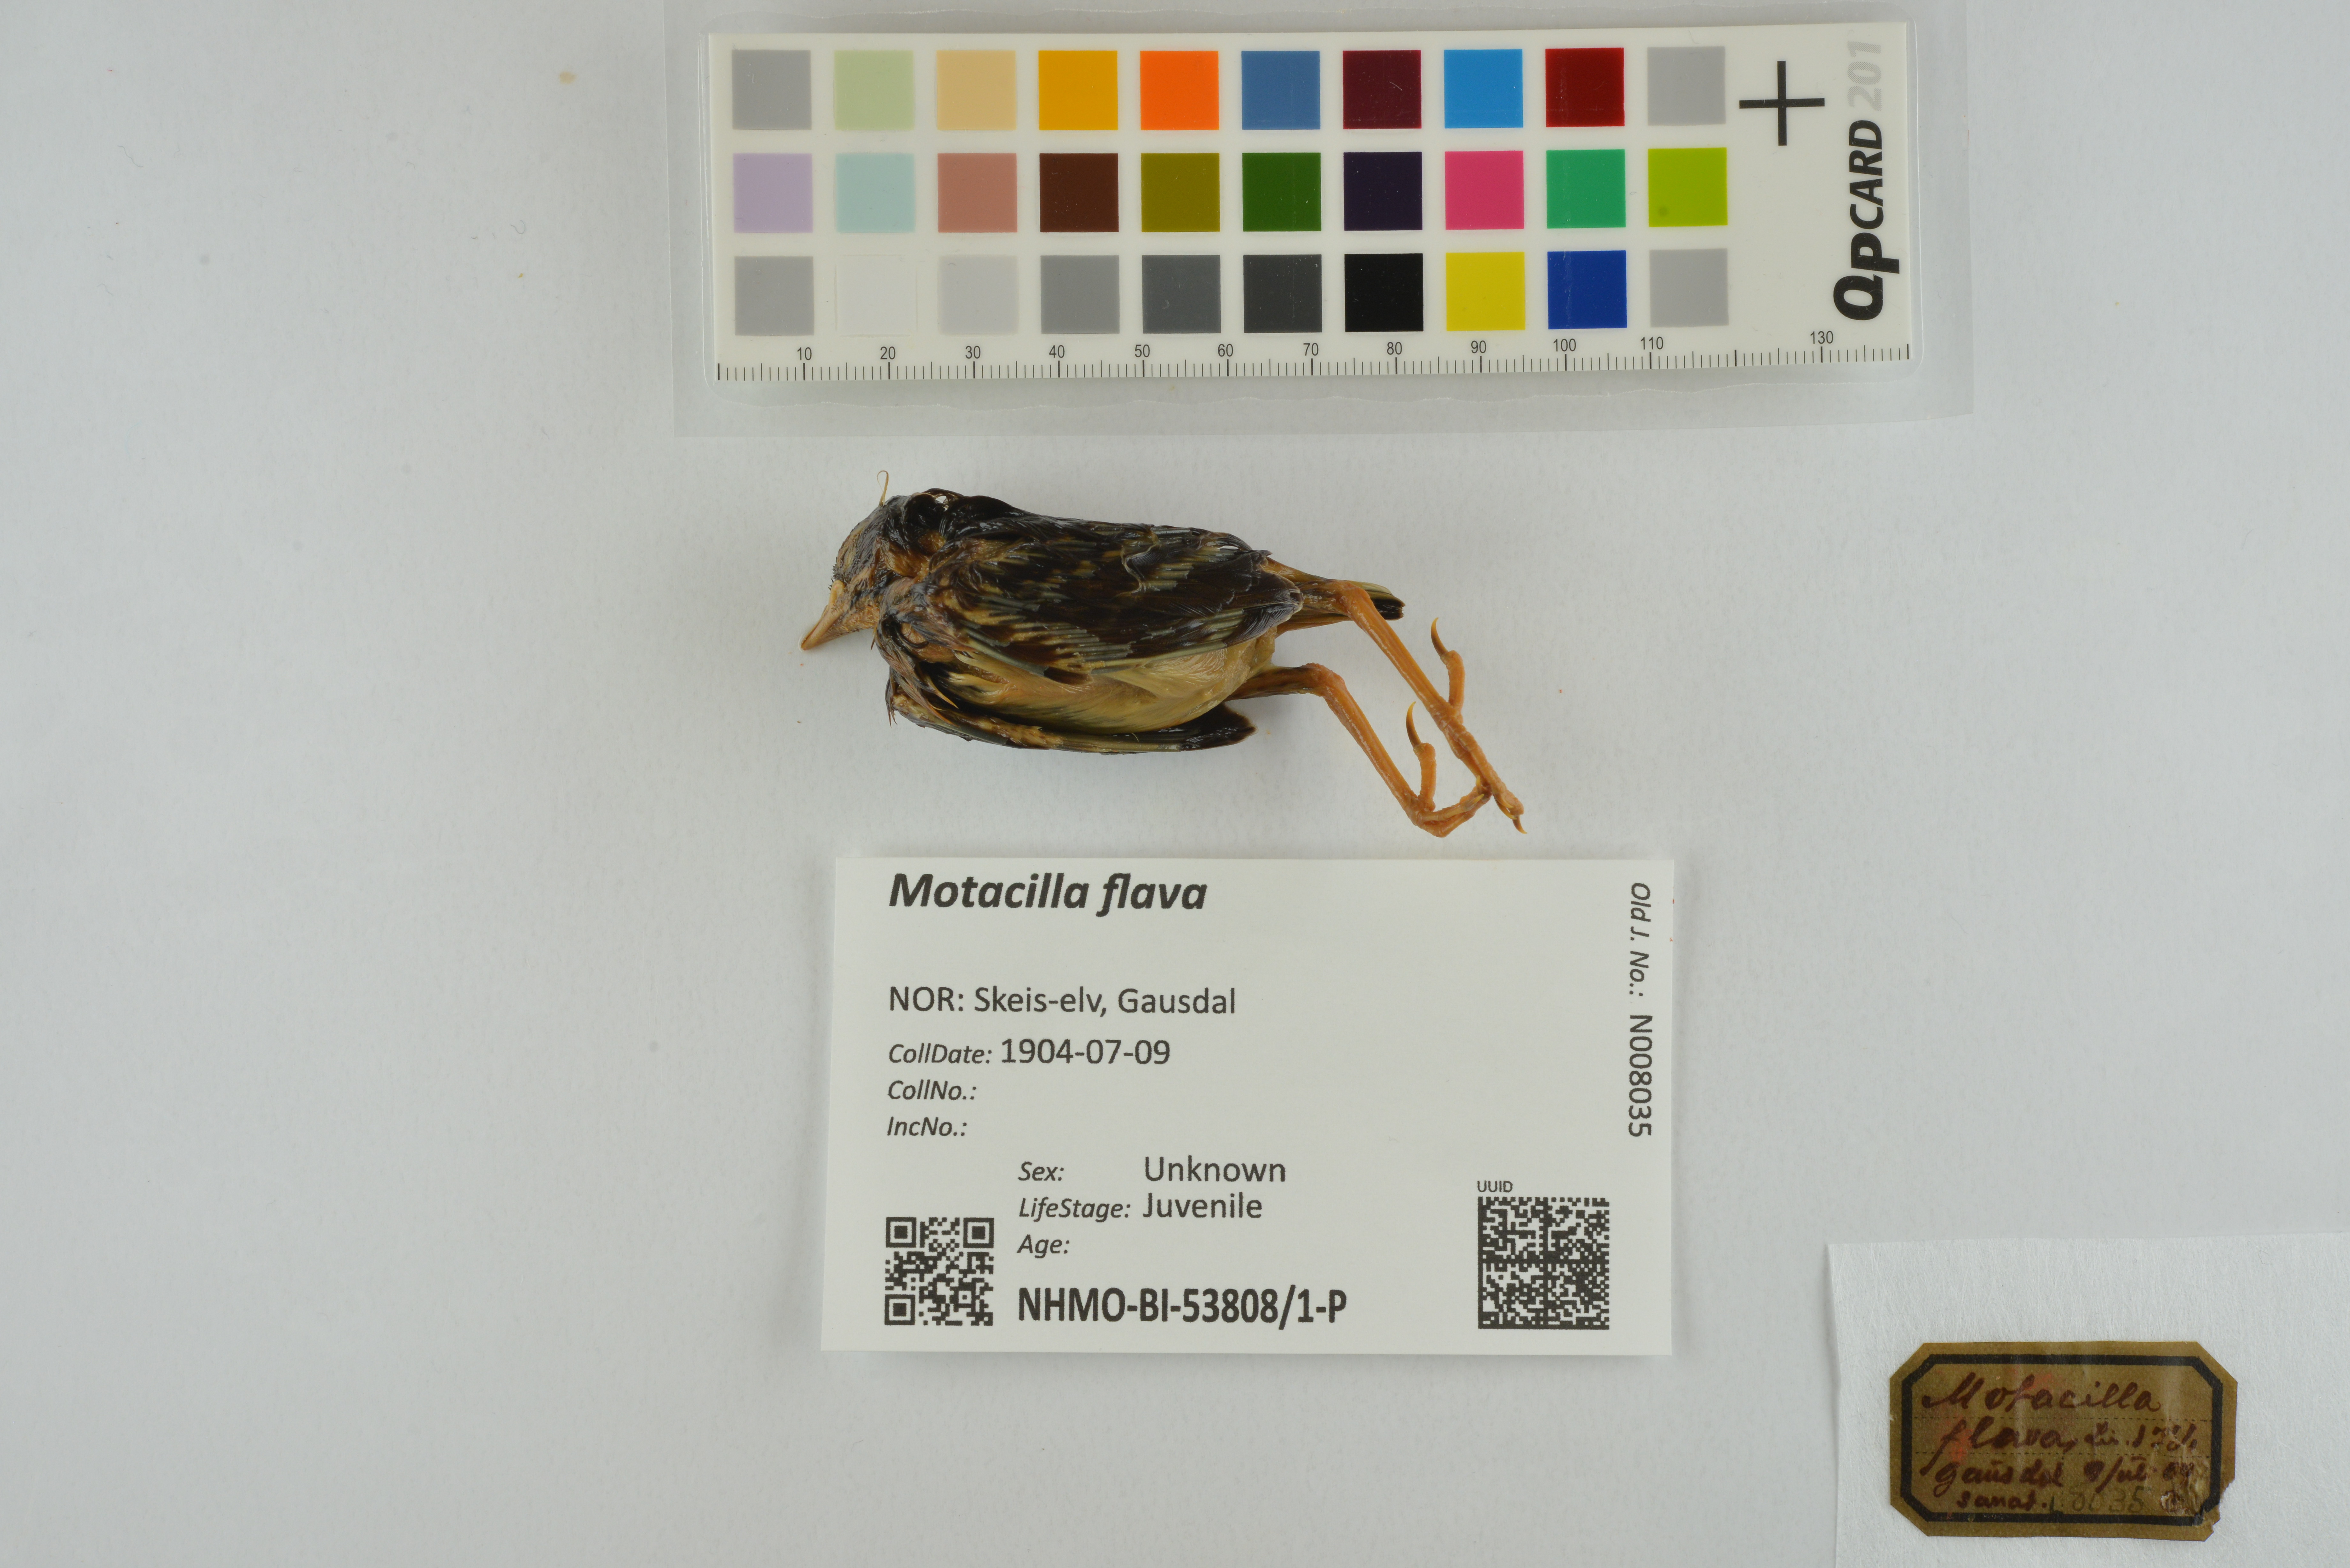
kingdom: Animalia
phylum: Chordata
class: Aves
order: Passeriformes
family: Motacillidae
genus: Motacilla
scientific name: Motacilla flava
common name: Western yellow wagtail
